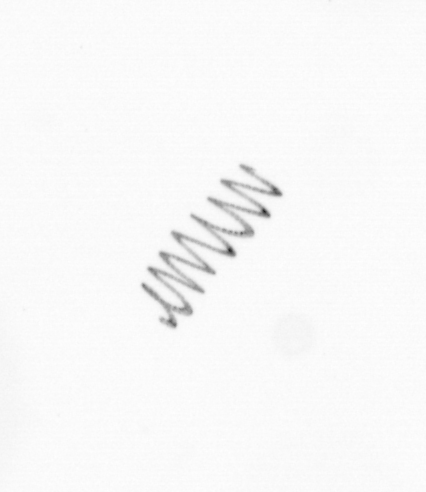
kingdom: Chromista
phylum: Ochrophyta
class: Bacillariophyceae
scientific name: Bacillariophyceae
